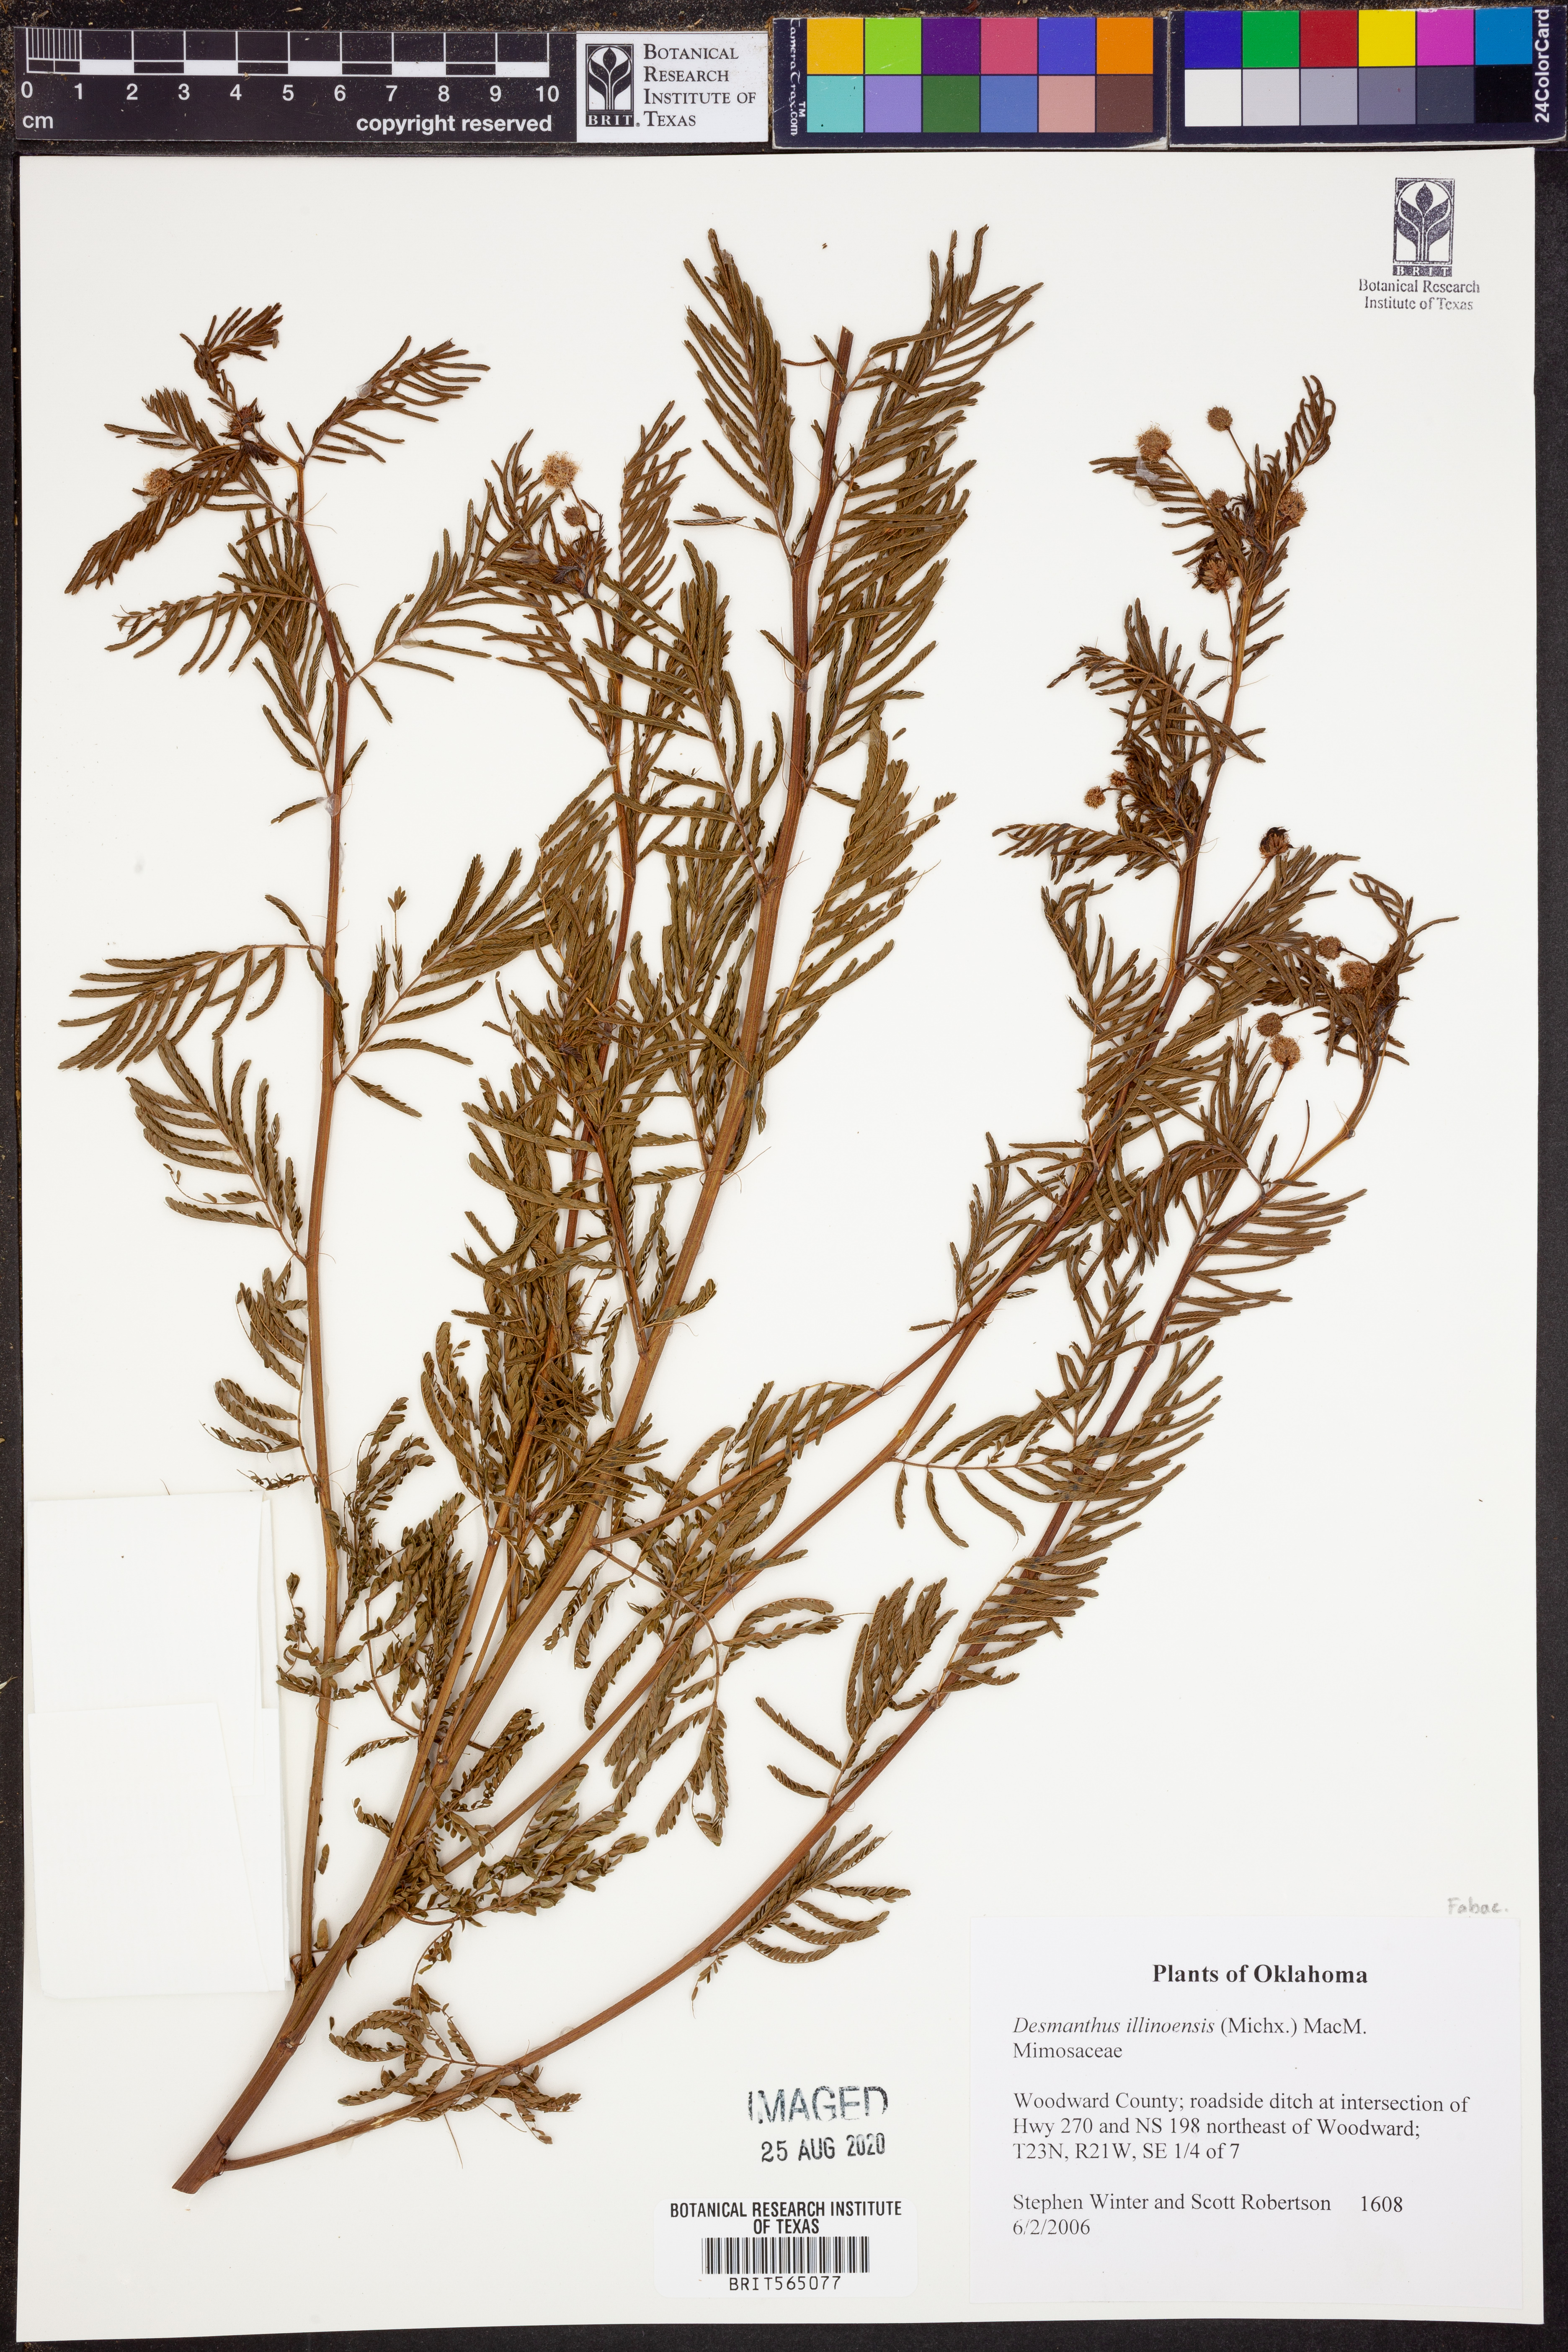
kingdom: Plantae
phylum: Tracheophyta
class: Magnoliopsida
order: Fabales
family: Fabaceae
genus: Desmanthus
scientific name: Desmanthus illinoensis
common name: Illinois bundle-flower
